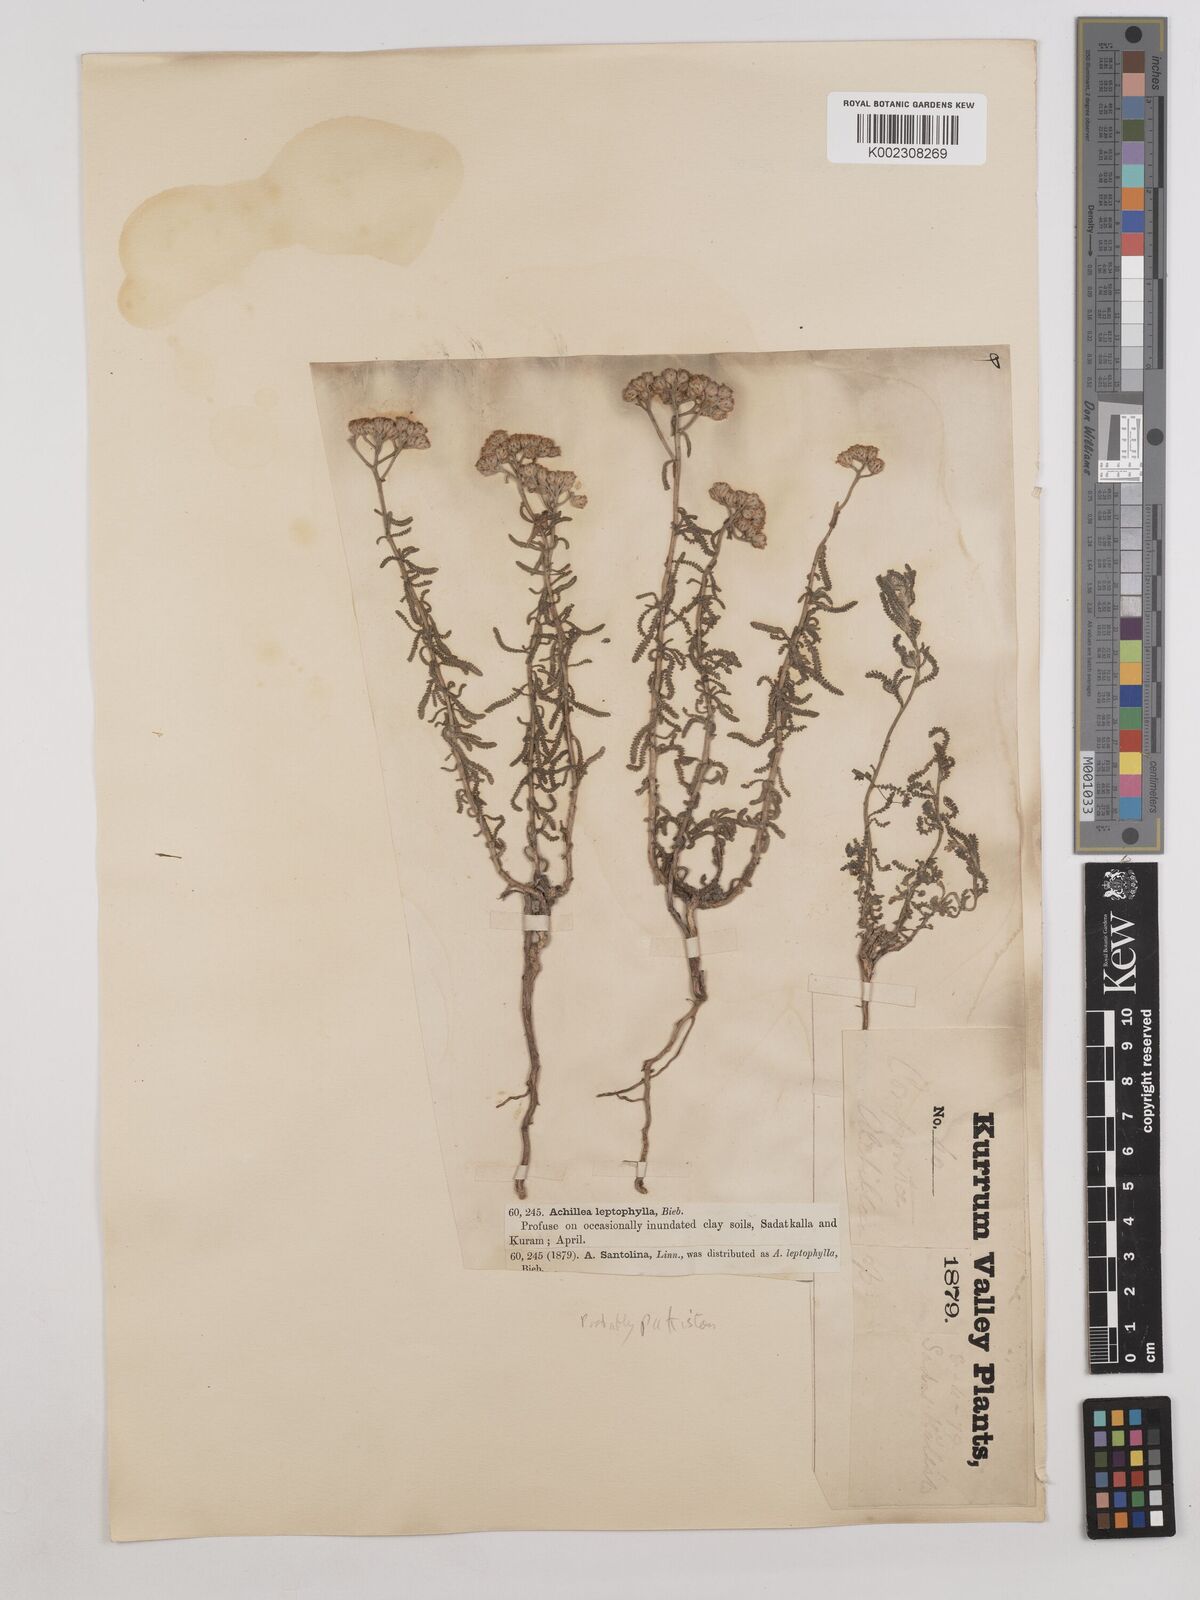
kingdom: Plantae
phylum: Tracheophyta
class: Magnoliopsida
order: Asterales
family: Asteraceae
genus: Achillea
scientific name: Achillea millefolium
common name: Yarrow
